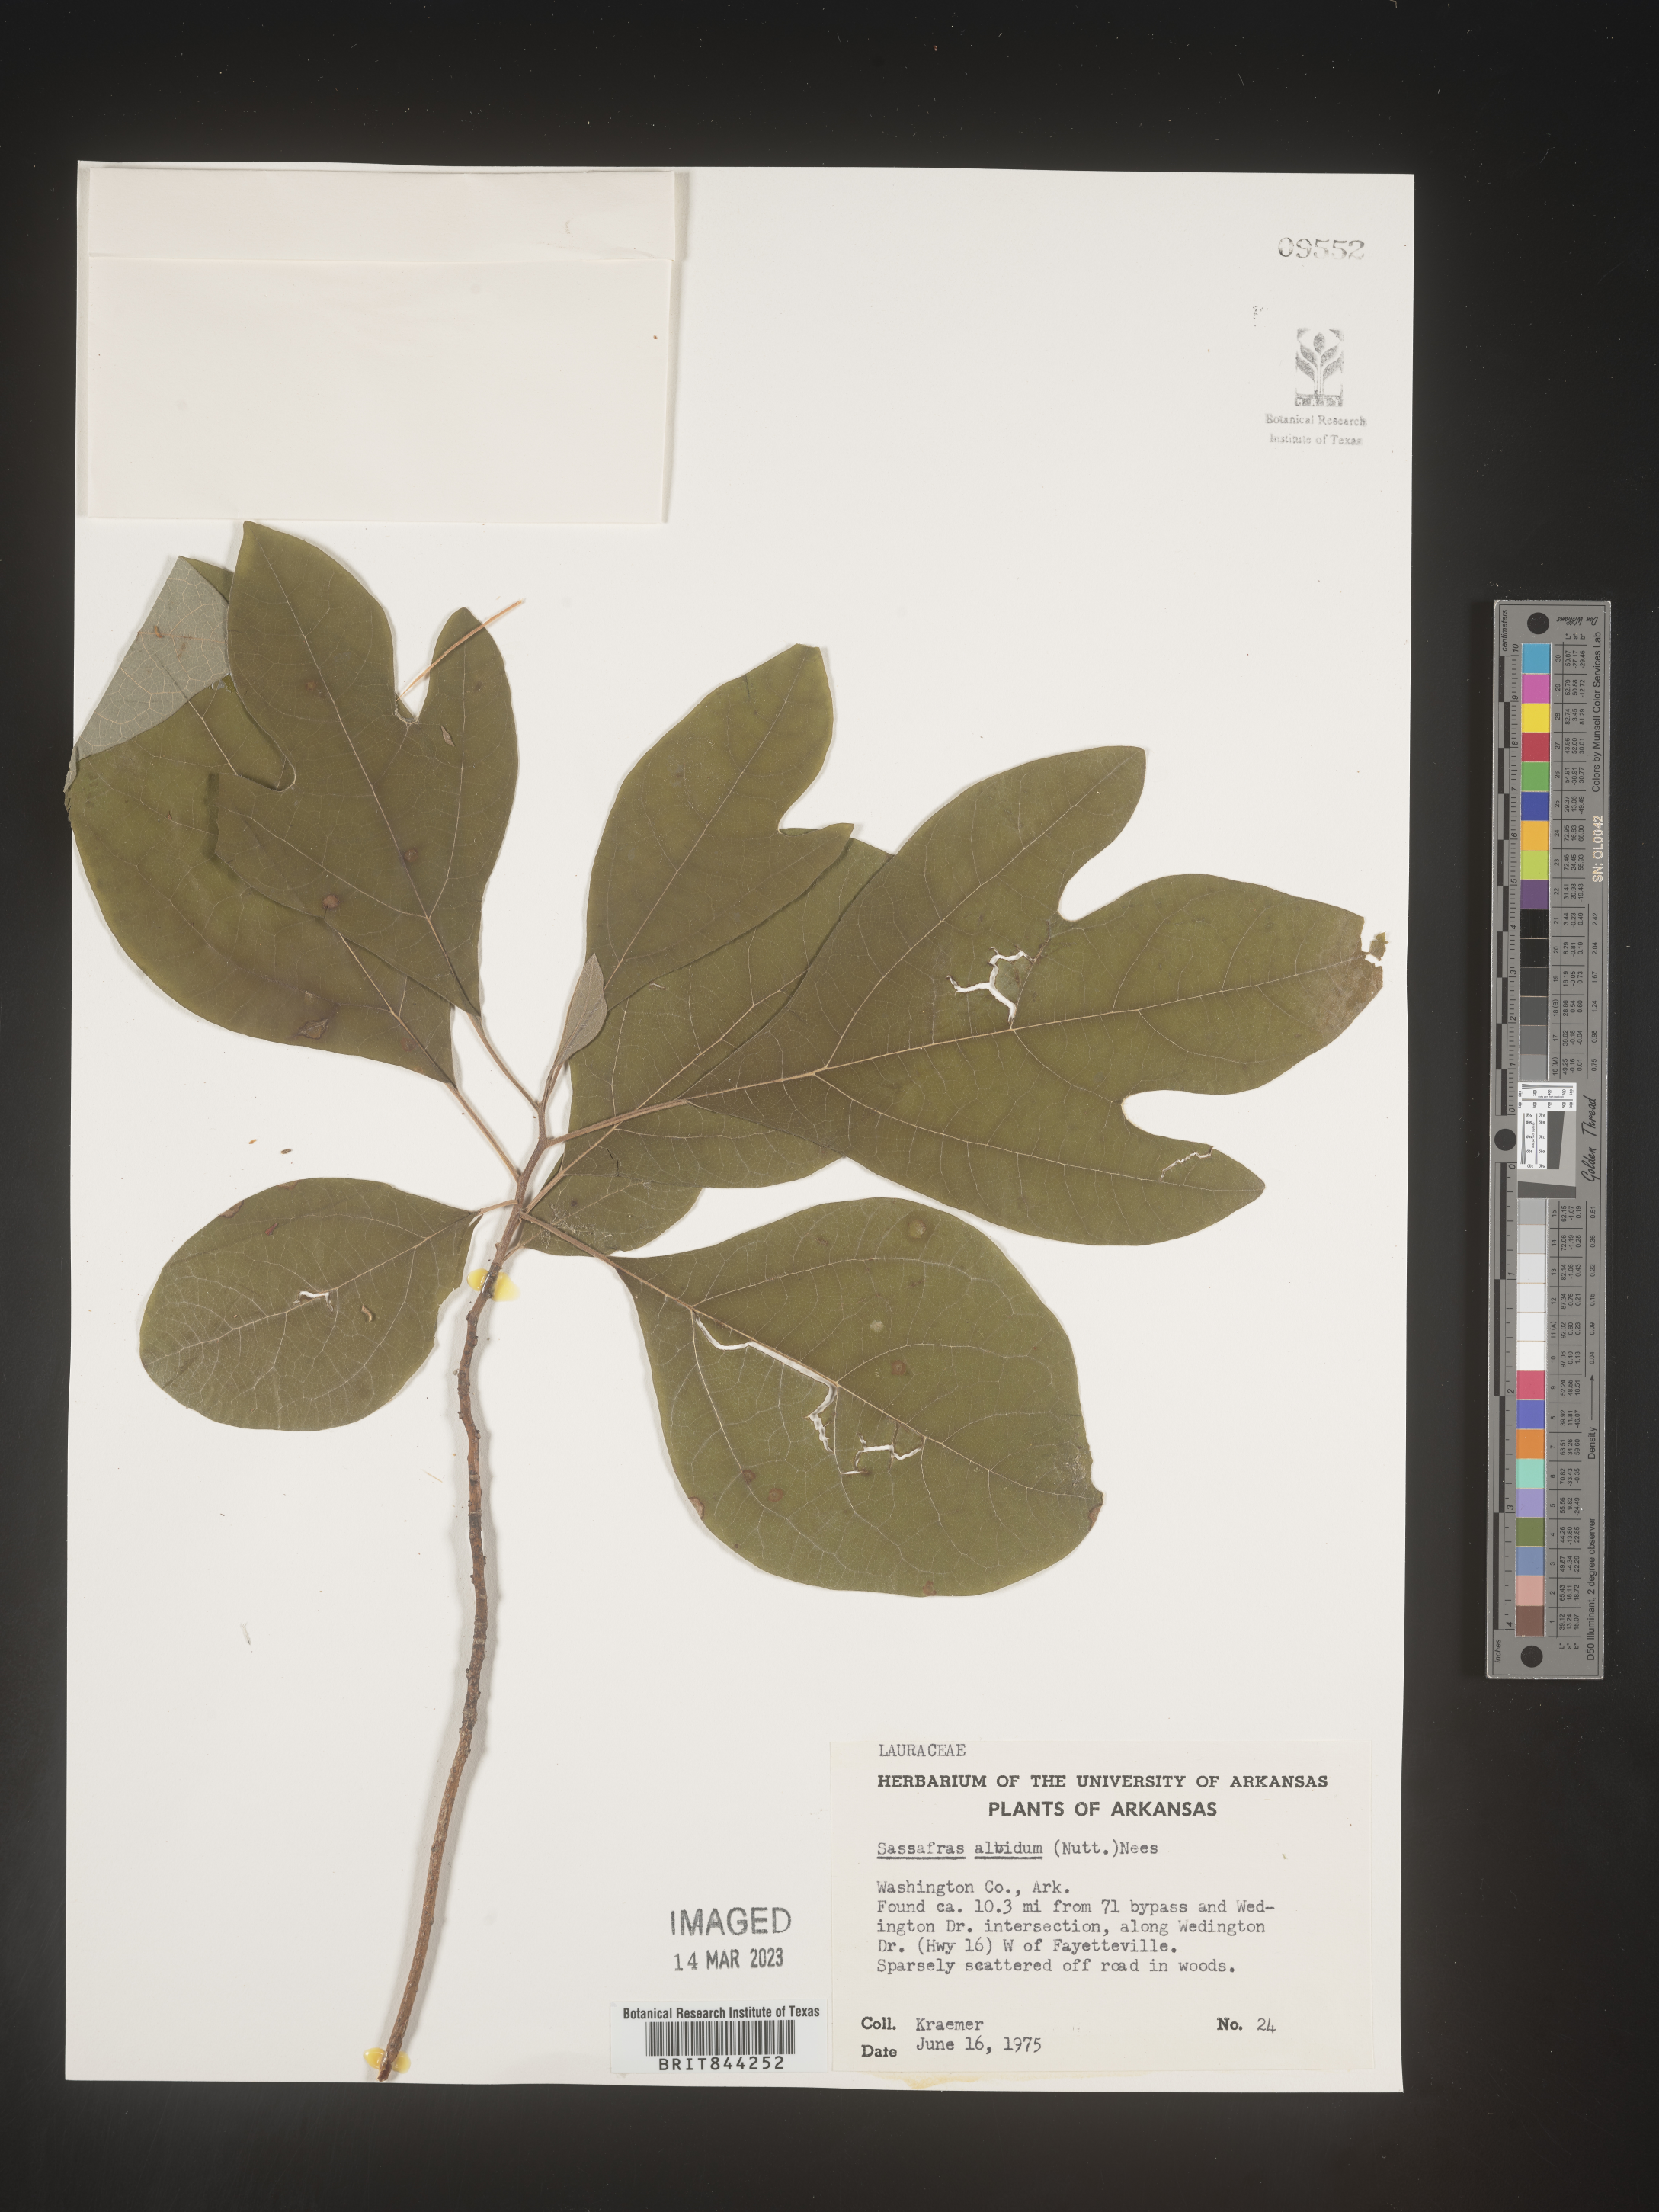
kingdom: Plantae
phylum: Tracheophyta
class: Magnoliopsida
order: Laurales
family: Lauraceae
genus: Sassafras
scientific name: Sassafras albidum
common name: Sassafras
